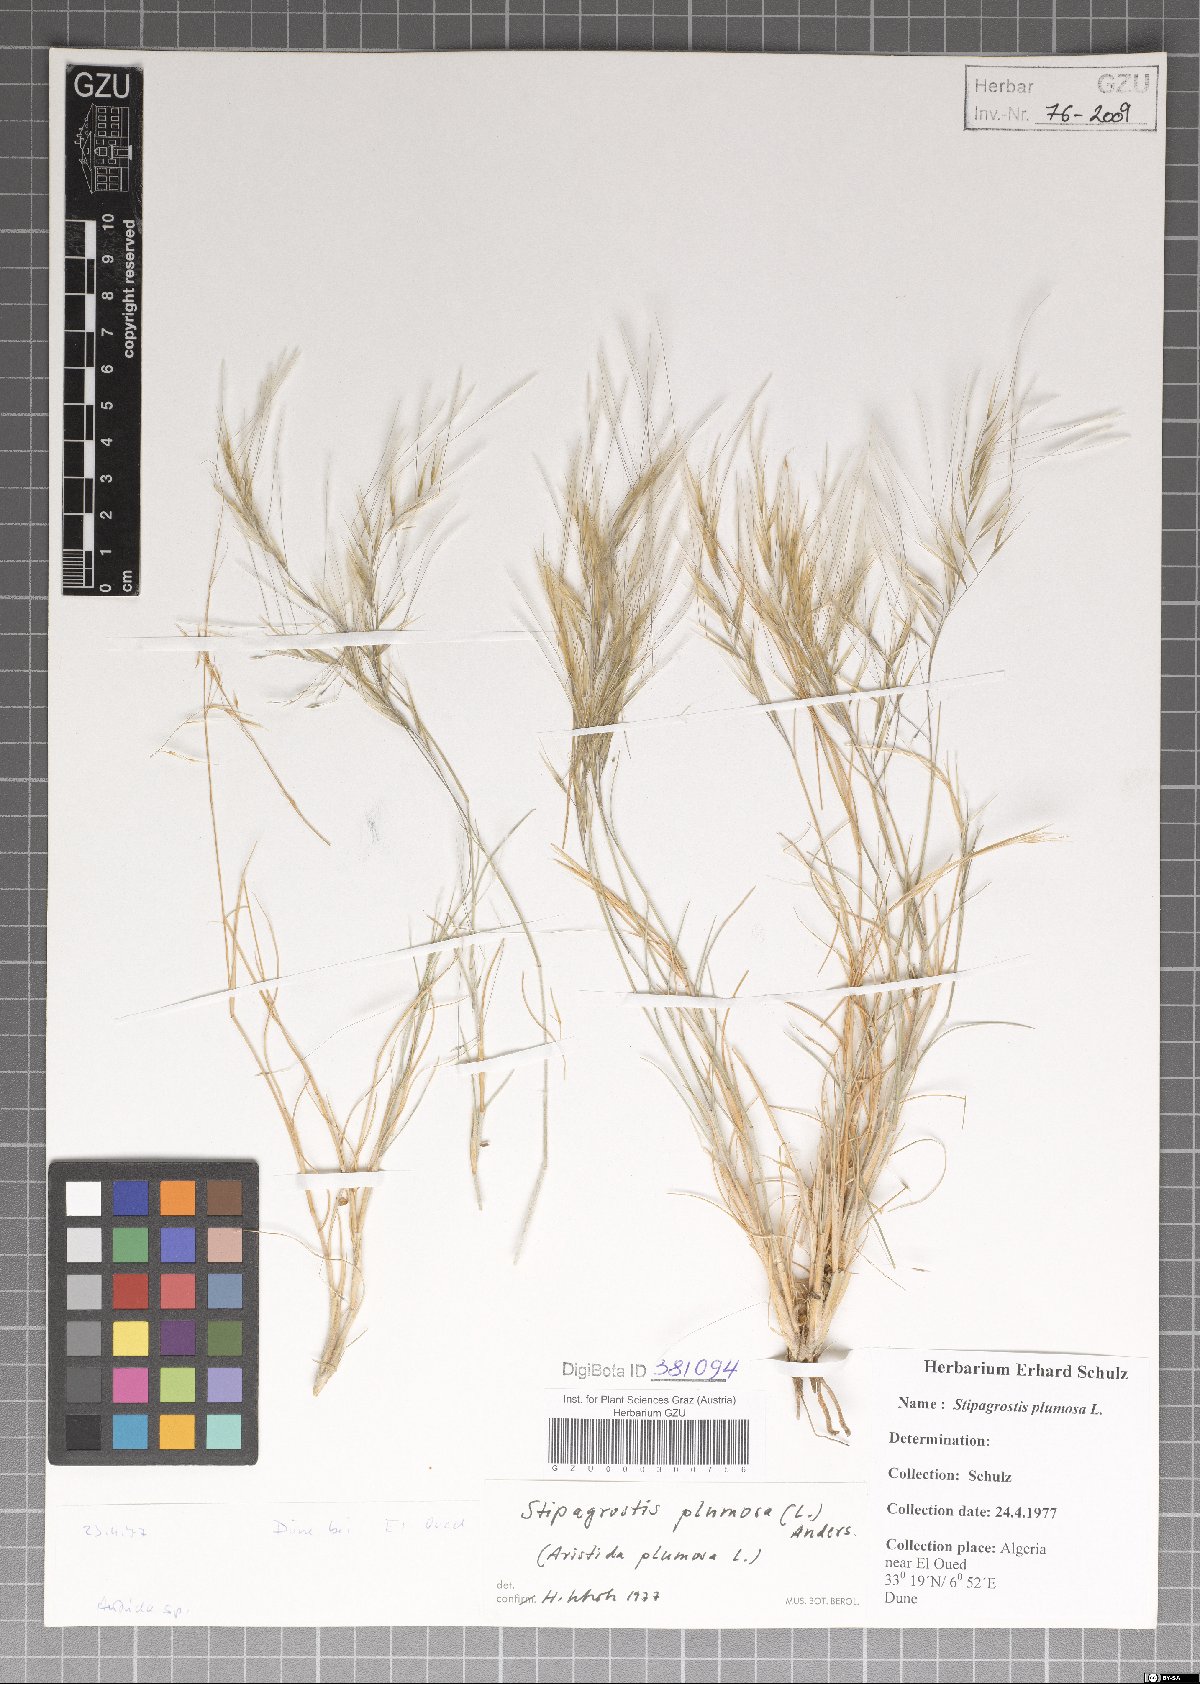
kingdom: Plantae
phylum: Tracheophyta
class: Liliopsida
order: Poales
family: Poaceae
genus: Stipagrostis
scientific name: Stipagrostis plumosa
